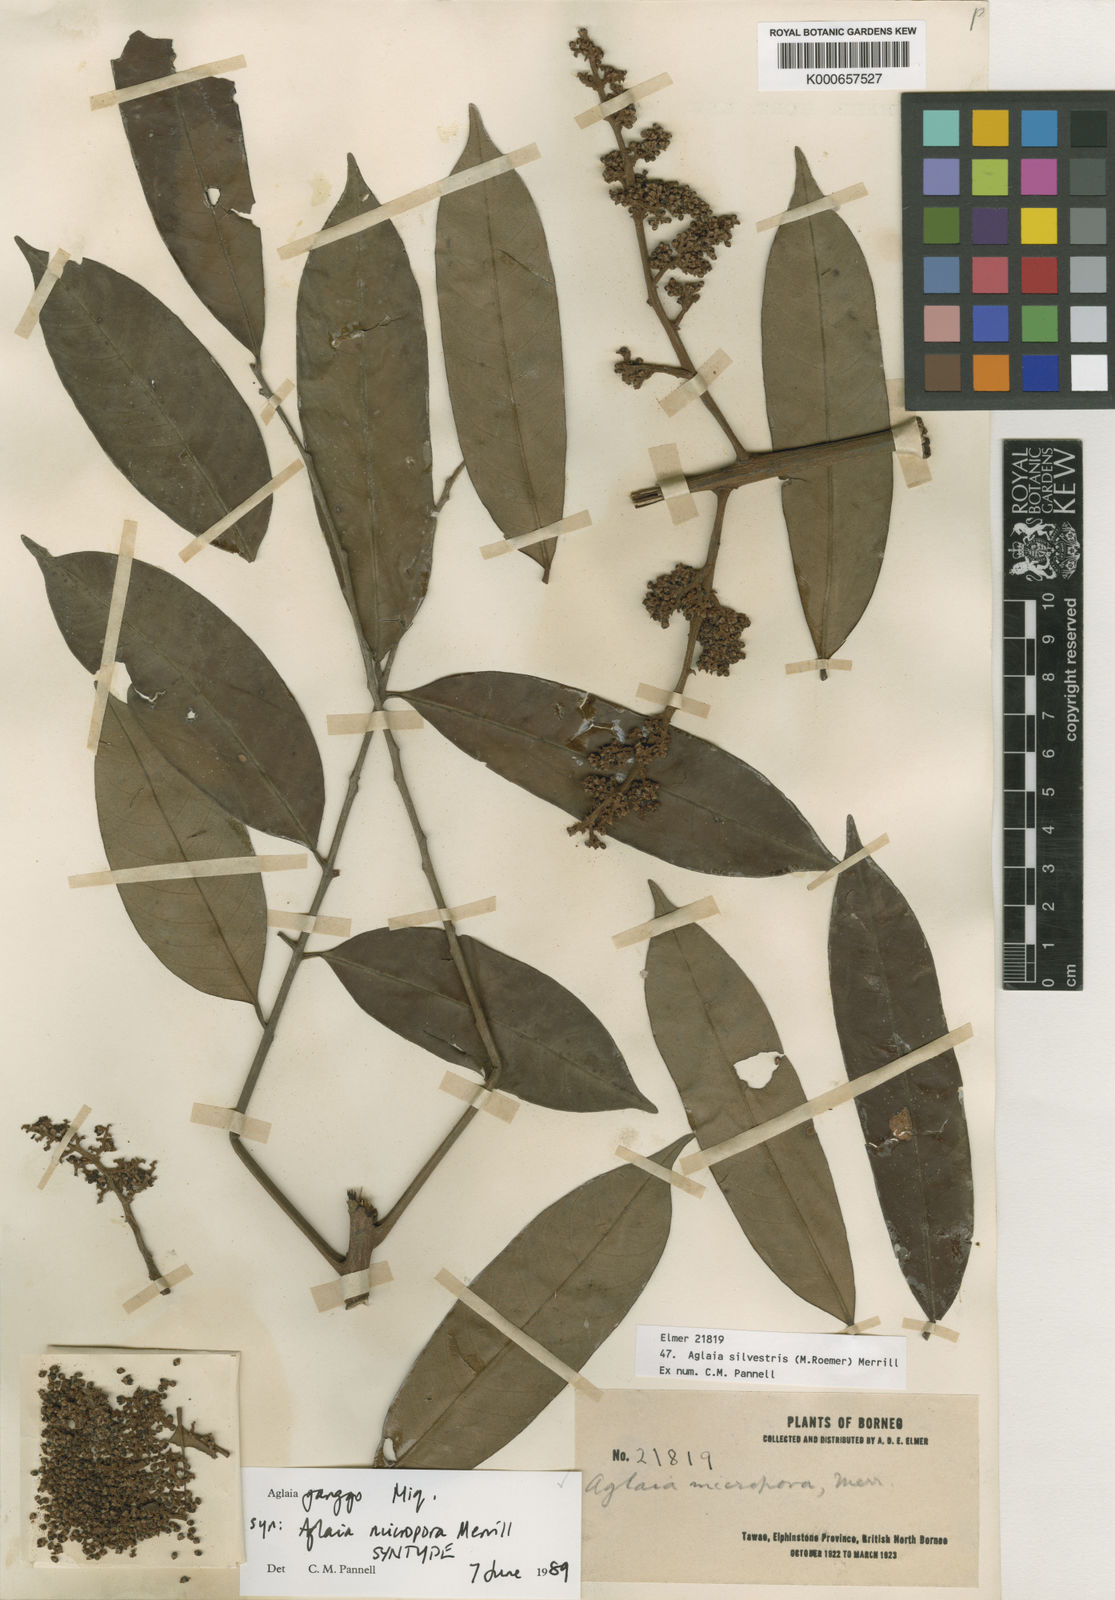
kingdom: Plantae
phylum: Tracheophyta
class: Magnoliopsida
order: Sapindales
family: Meliaceae
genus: Aglaia
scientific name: Aglaia silvestris
